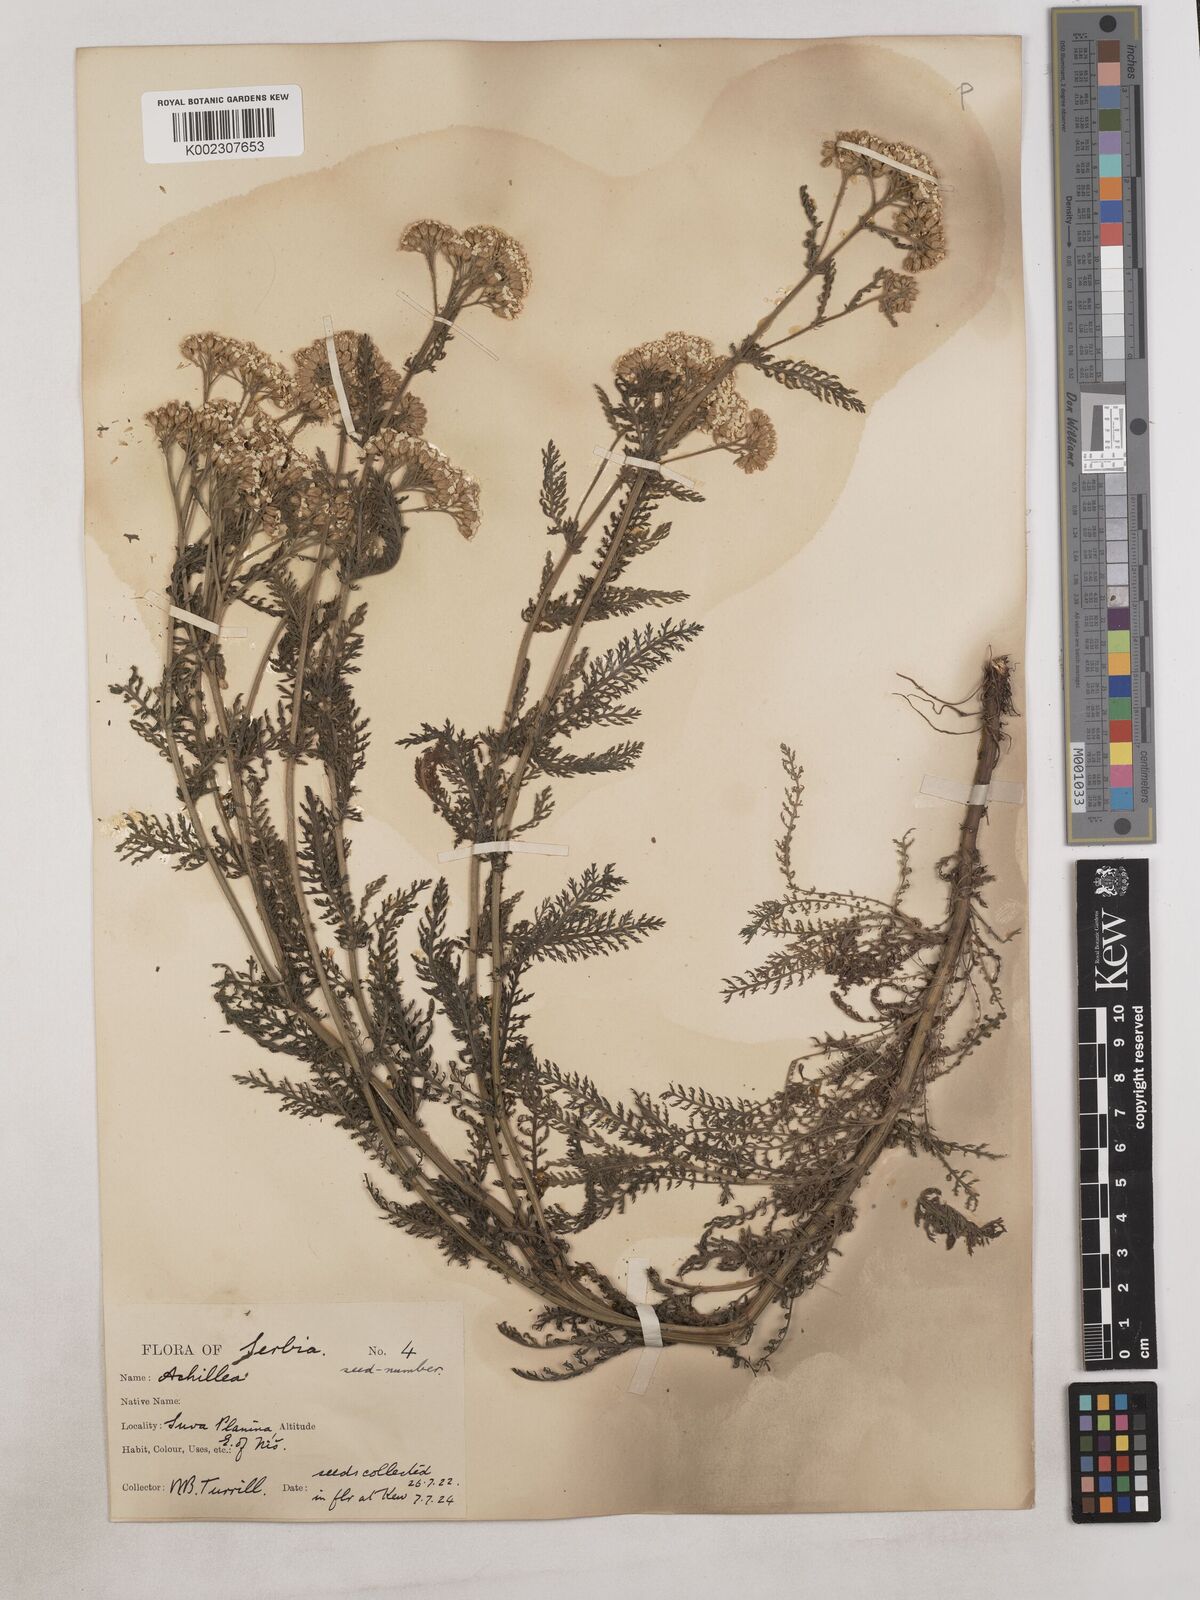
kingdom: Plantae
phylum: Tracheophyta
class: Magnoliopsida
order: Asterales
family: Asteraceae
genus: Achillea
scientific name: Achillea
